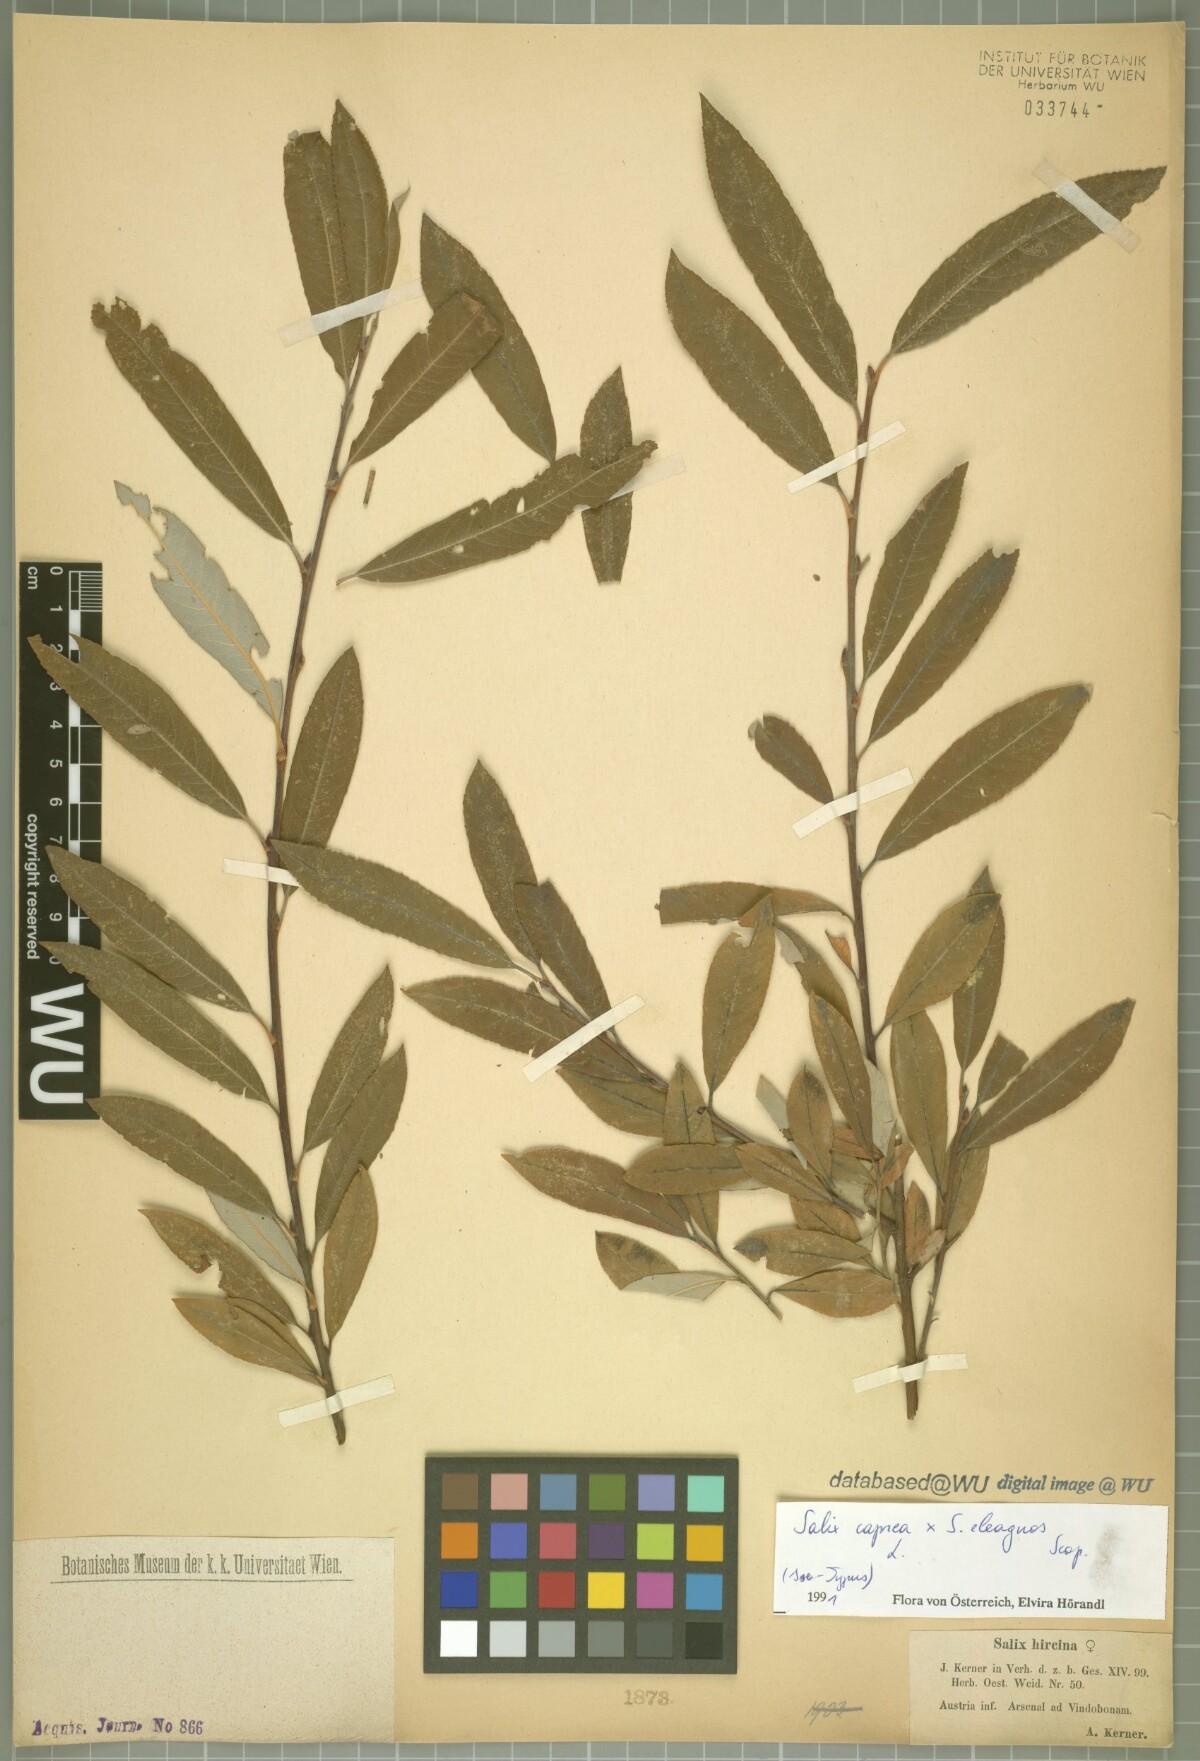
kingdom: Plantae
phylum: Tracheophyta
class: Magnoliopsida
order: Malpighiales
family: Salicaceae
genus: Salix
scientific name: Salix eleagnos
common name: Elaeagnus willow
